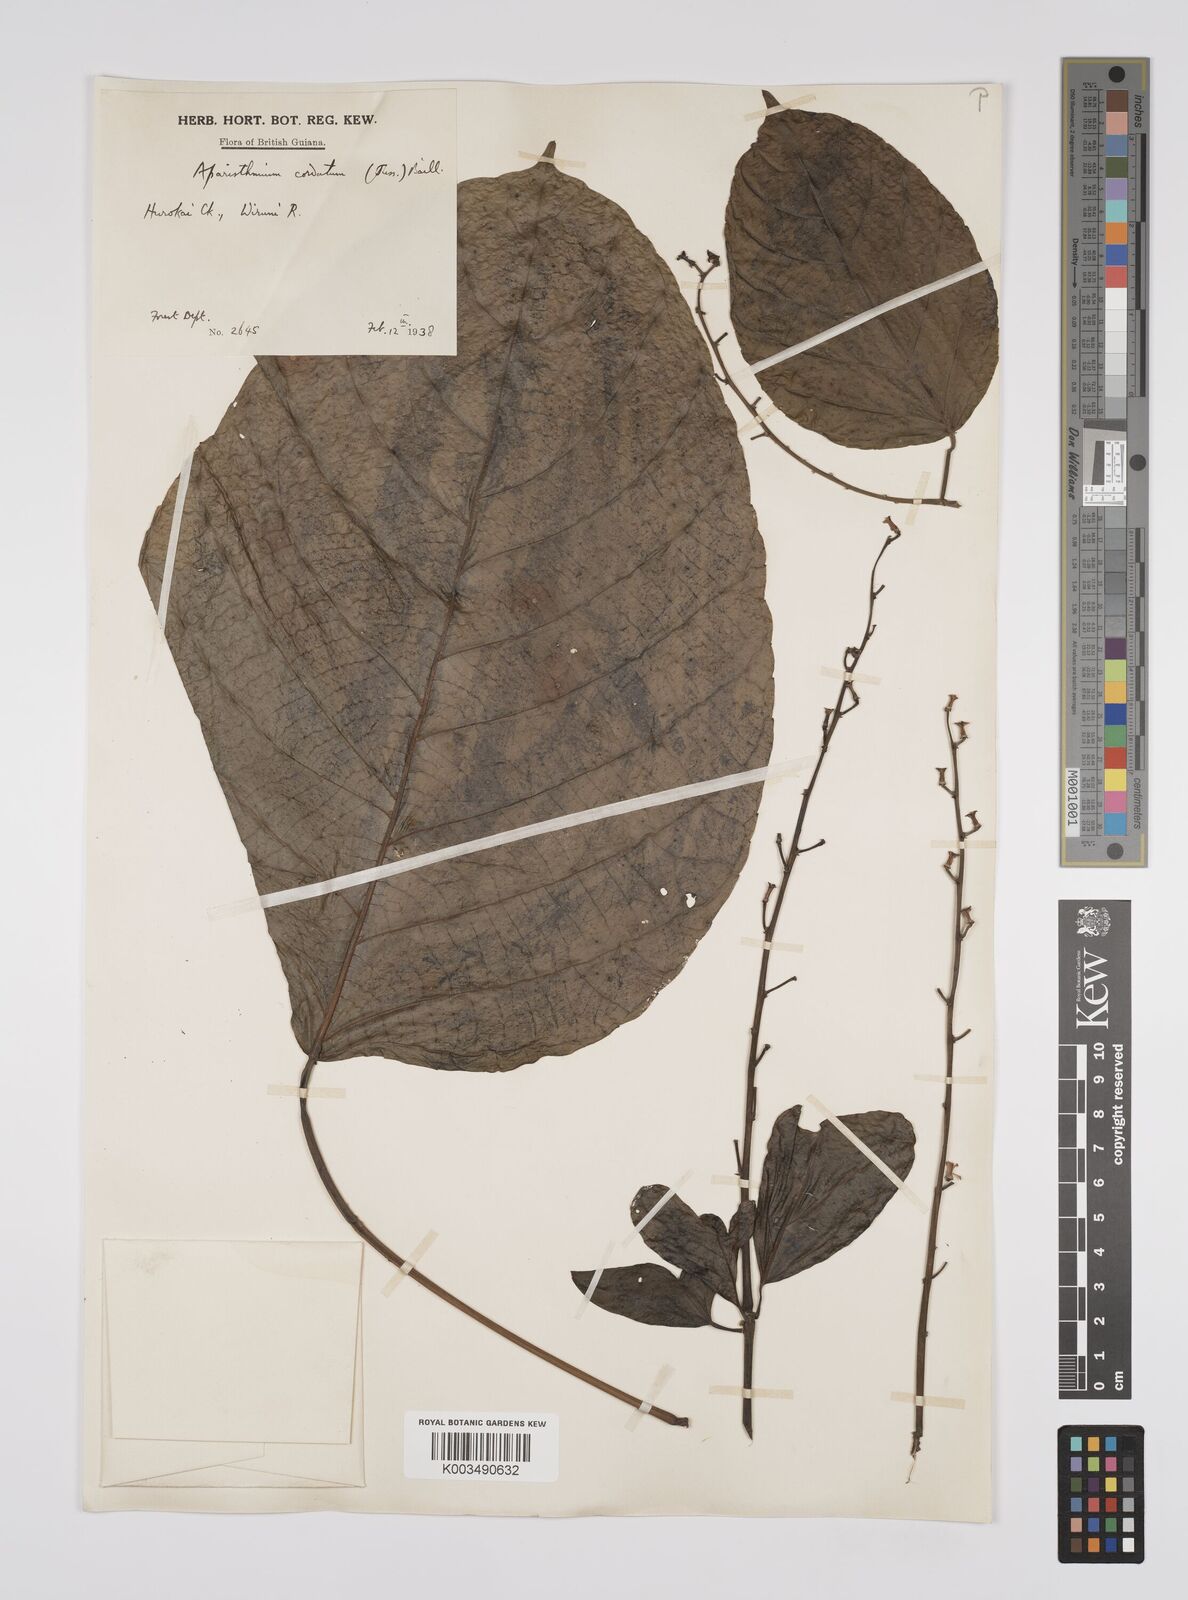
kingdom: Plantae
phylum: Tracheophyta
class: Magnoliopsida
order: Malpighiales
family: Euphorbiaceae
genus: Aparisthmium
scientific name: Aparisthmium cordatum
